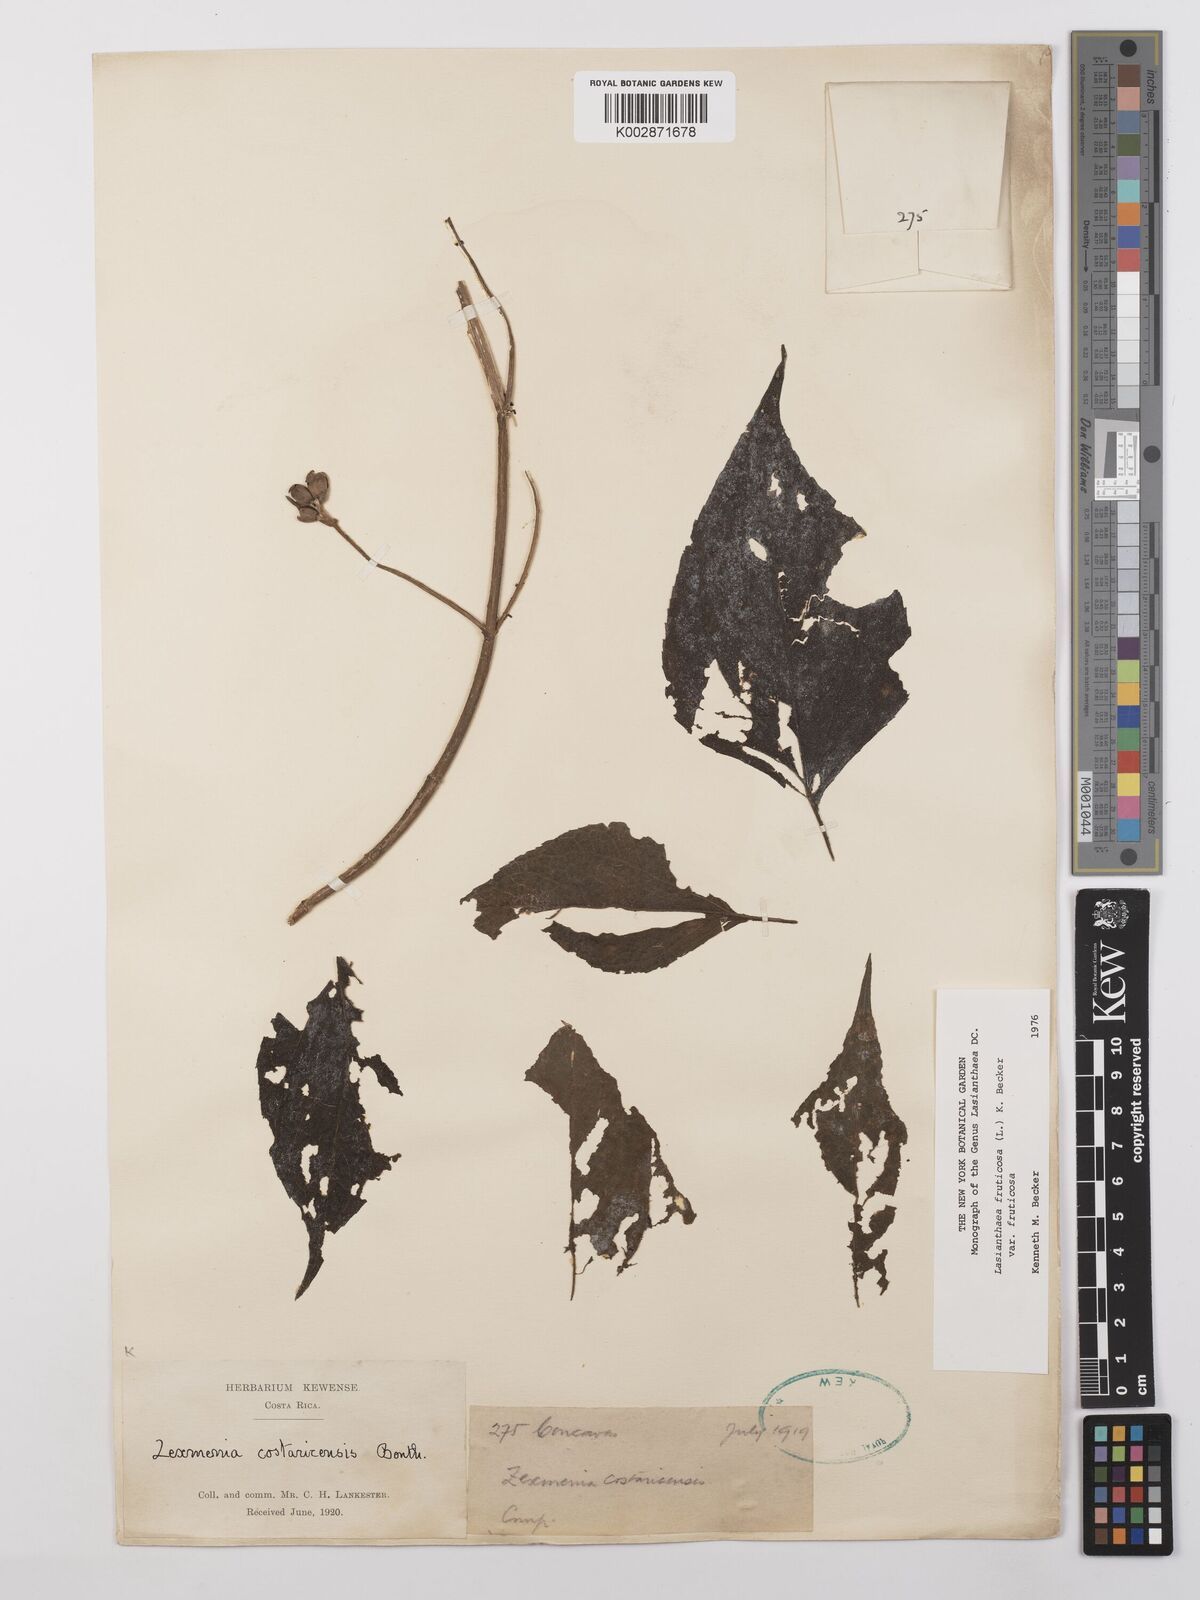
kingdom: Plantae
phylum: Tracheophyta
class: Magnoliopsida
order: Asterales
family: Asteraceae
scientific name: Asteraceae
